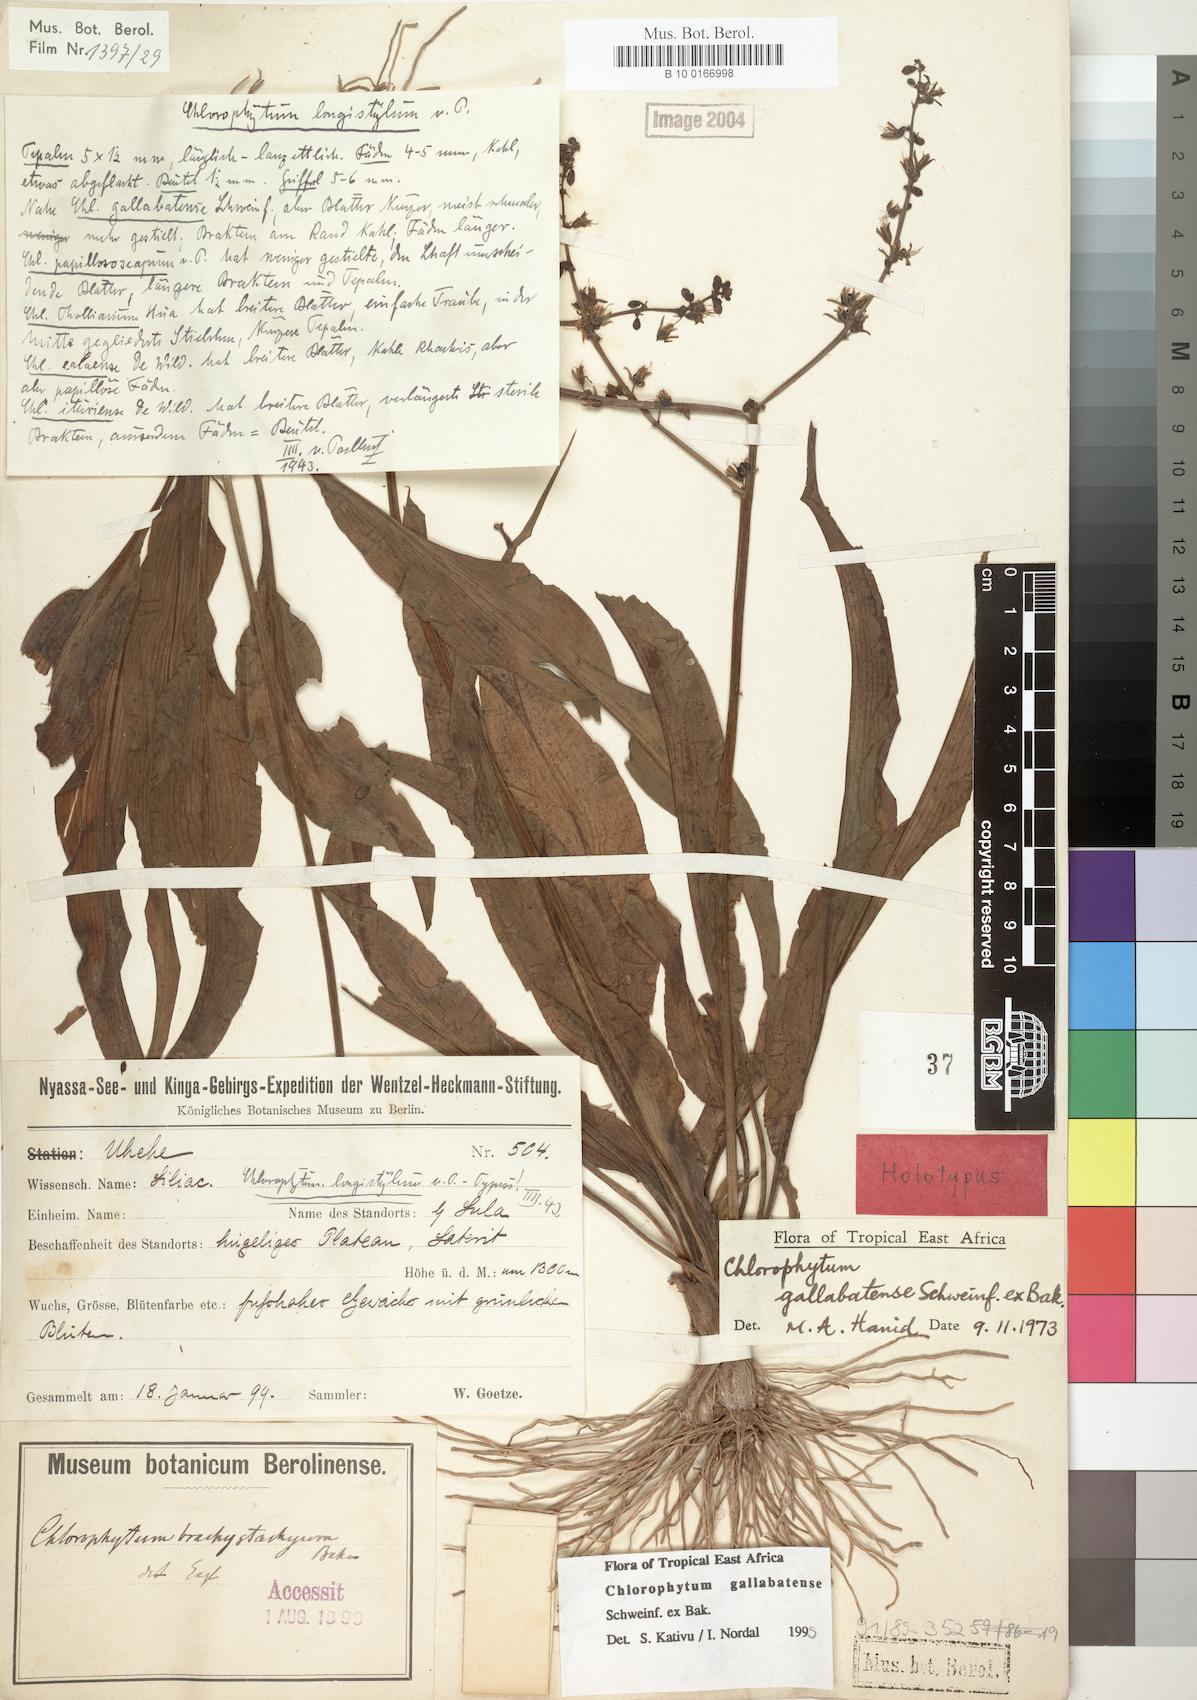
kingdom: Plantae
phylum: Tracheophyta
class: Liliopsida
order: Asparagales
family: Asparagaceae
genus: Chlorophytum
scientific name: Chlorophytum gallabatense
